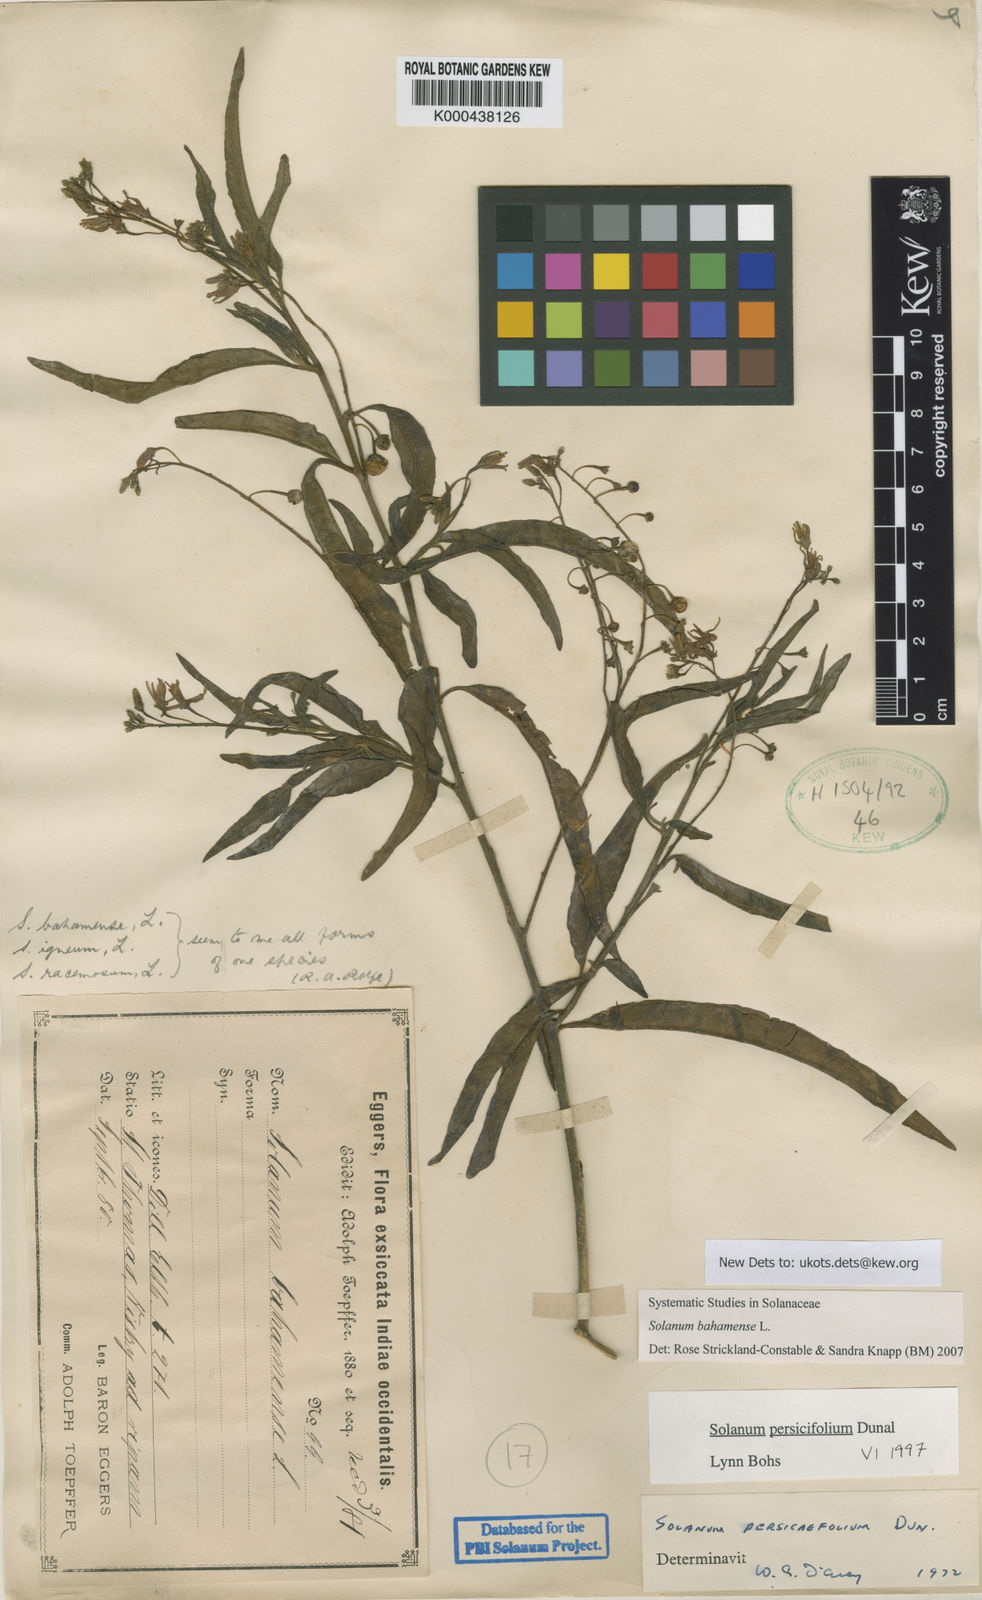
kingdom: Plantae
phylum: Tracheophyta
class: Magnoliopsida
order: Solanales
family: Solanaceae
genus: Solanum
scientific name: Solanum bahamense
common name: Canker-berry
